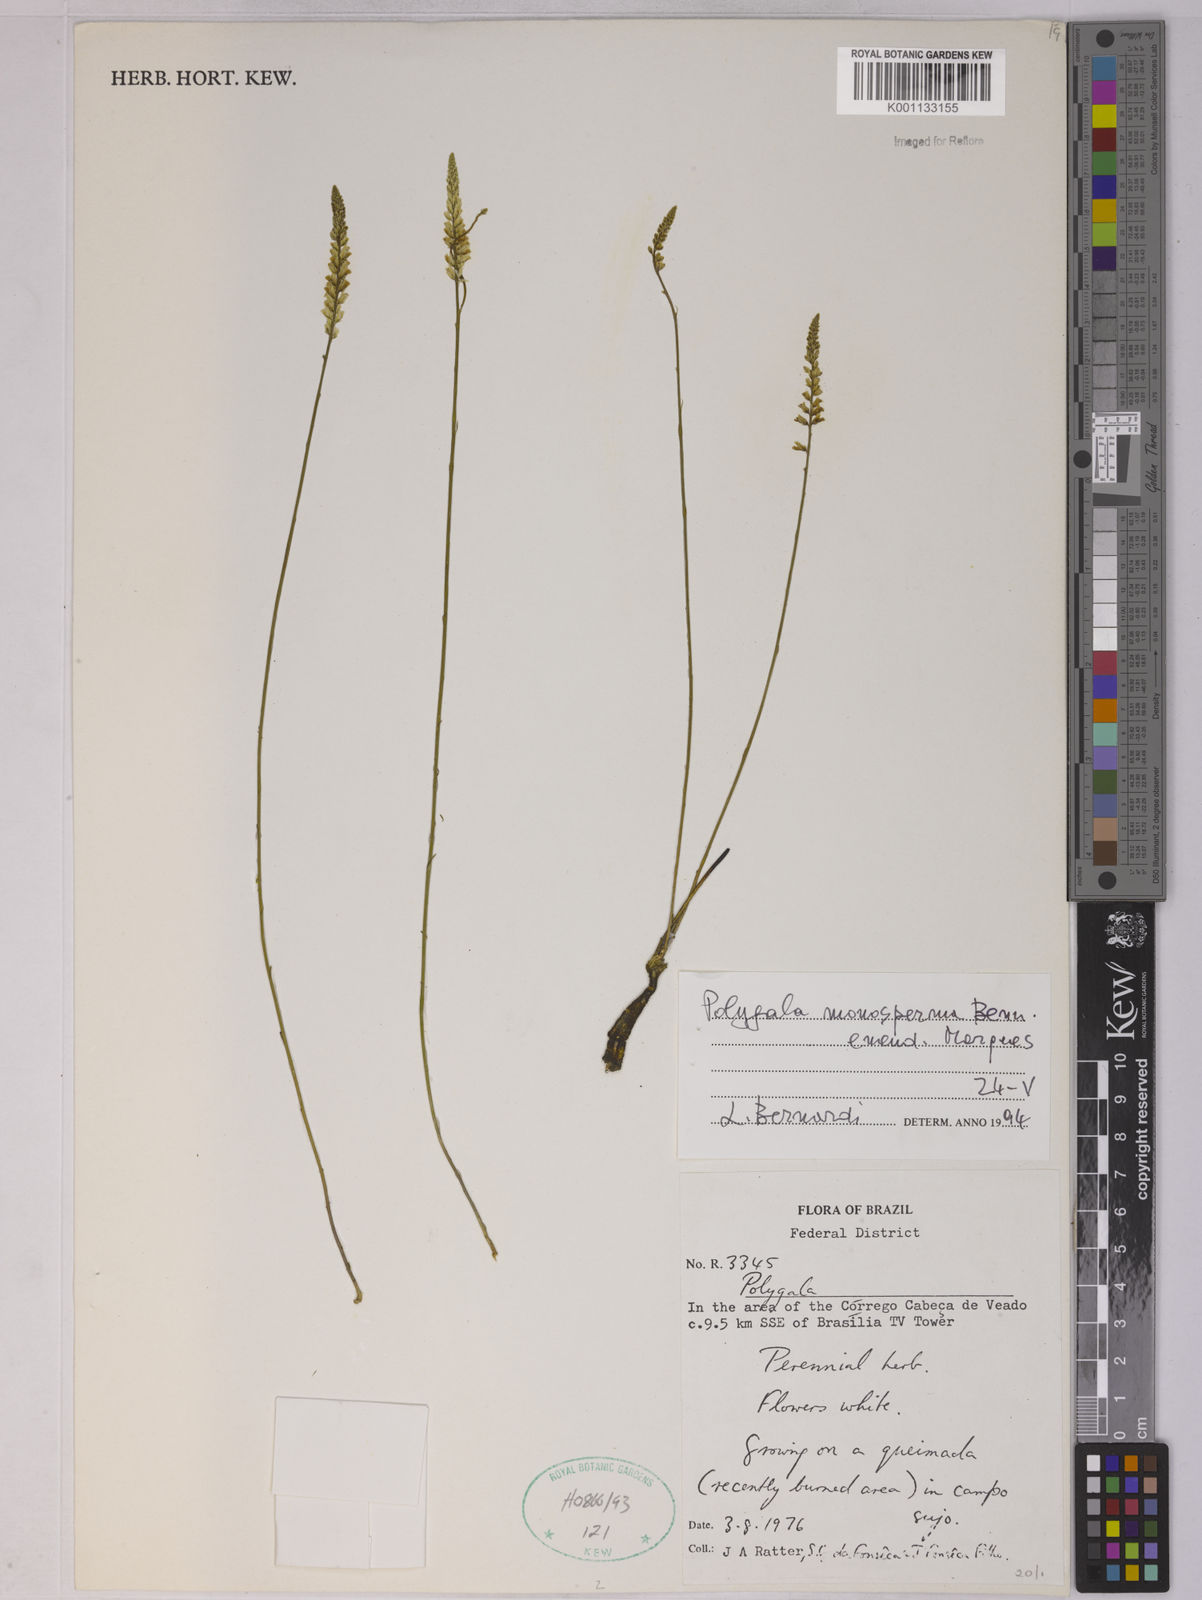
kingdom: Plantae
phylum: Tracheophyta
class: Magnoliopsida
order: Fabales
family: Polygalaceae
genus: Polygala
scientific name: Polygala monosperma
